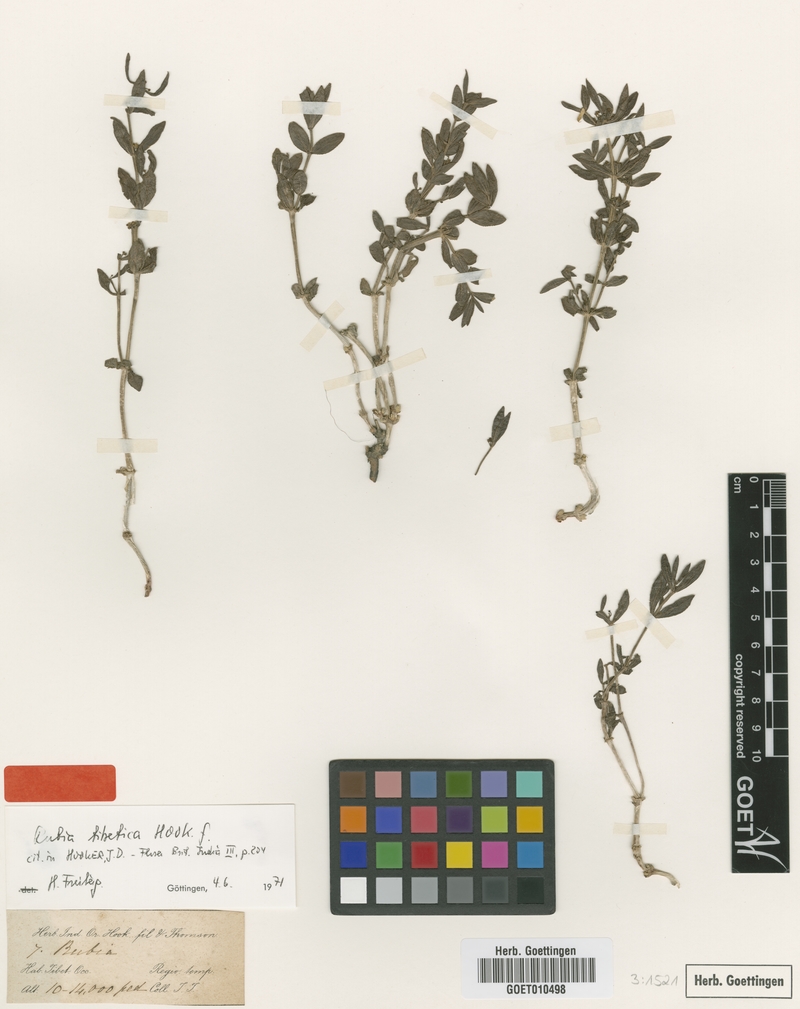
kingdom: Plantae
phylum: Tracheophyta
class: Magnoliopsida
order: Gentianales
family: Rubiaceae
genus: Rubia
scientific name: Rubia tibetica
